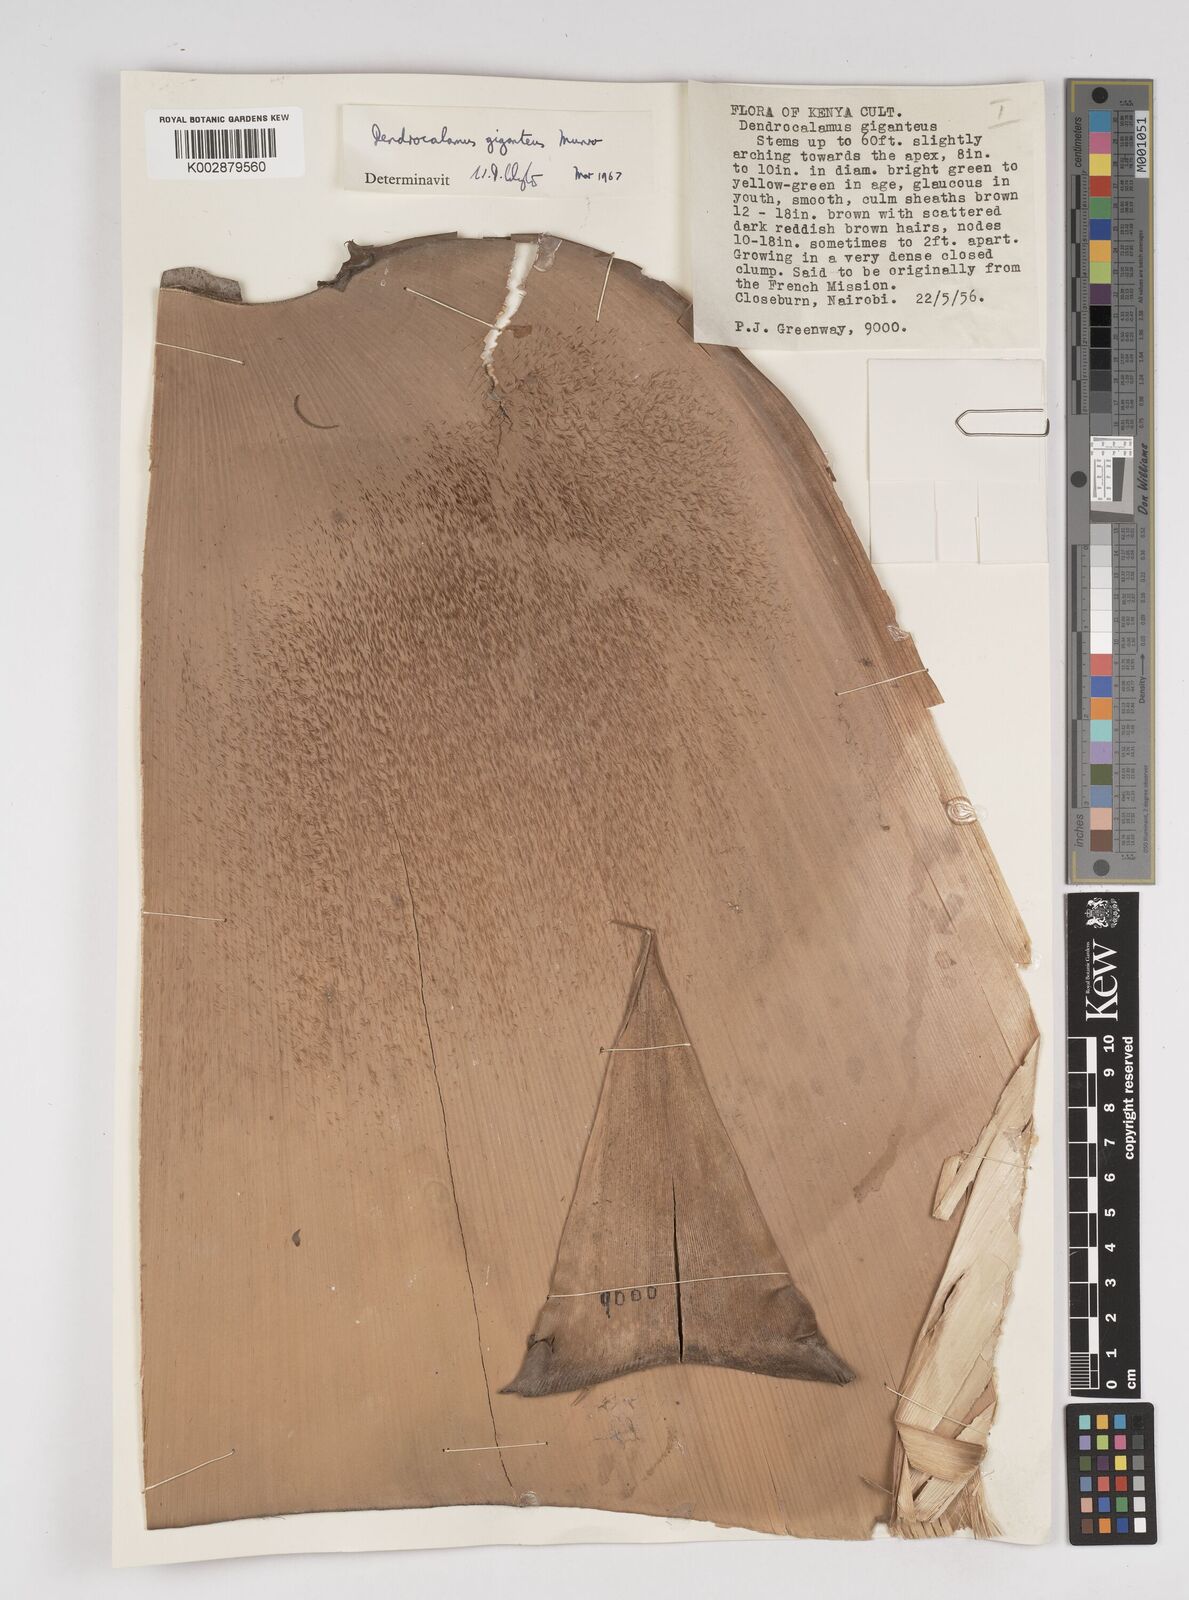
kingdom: Plantae
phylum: Tracheophyta
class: Liliopsida
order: Poales
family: Poaceae
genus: Dendrocalamus
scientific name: Dendrocalamus giganteus
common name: Giant bamboo
